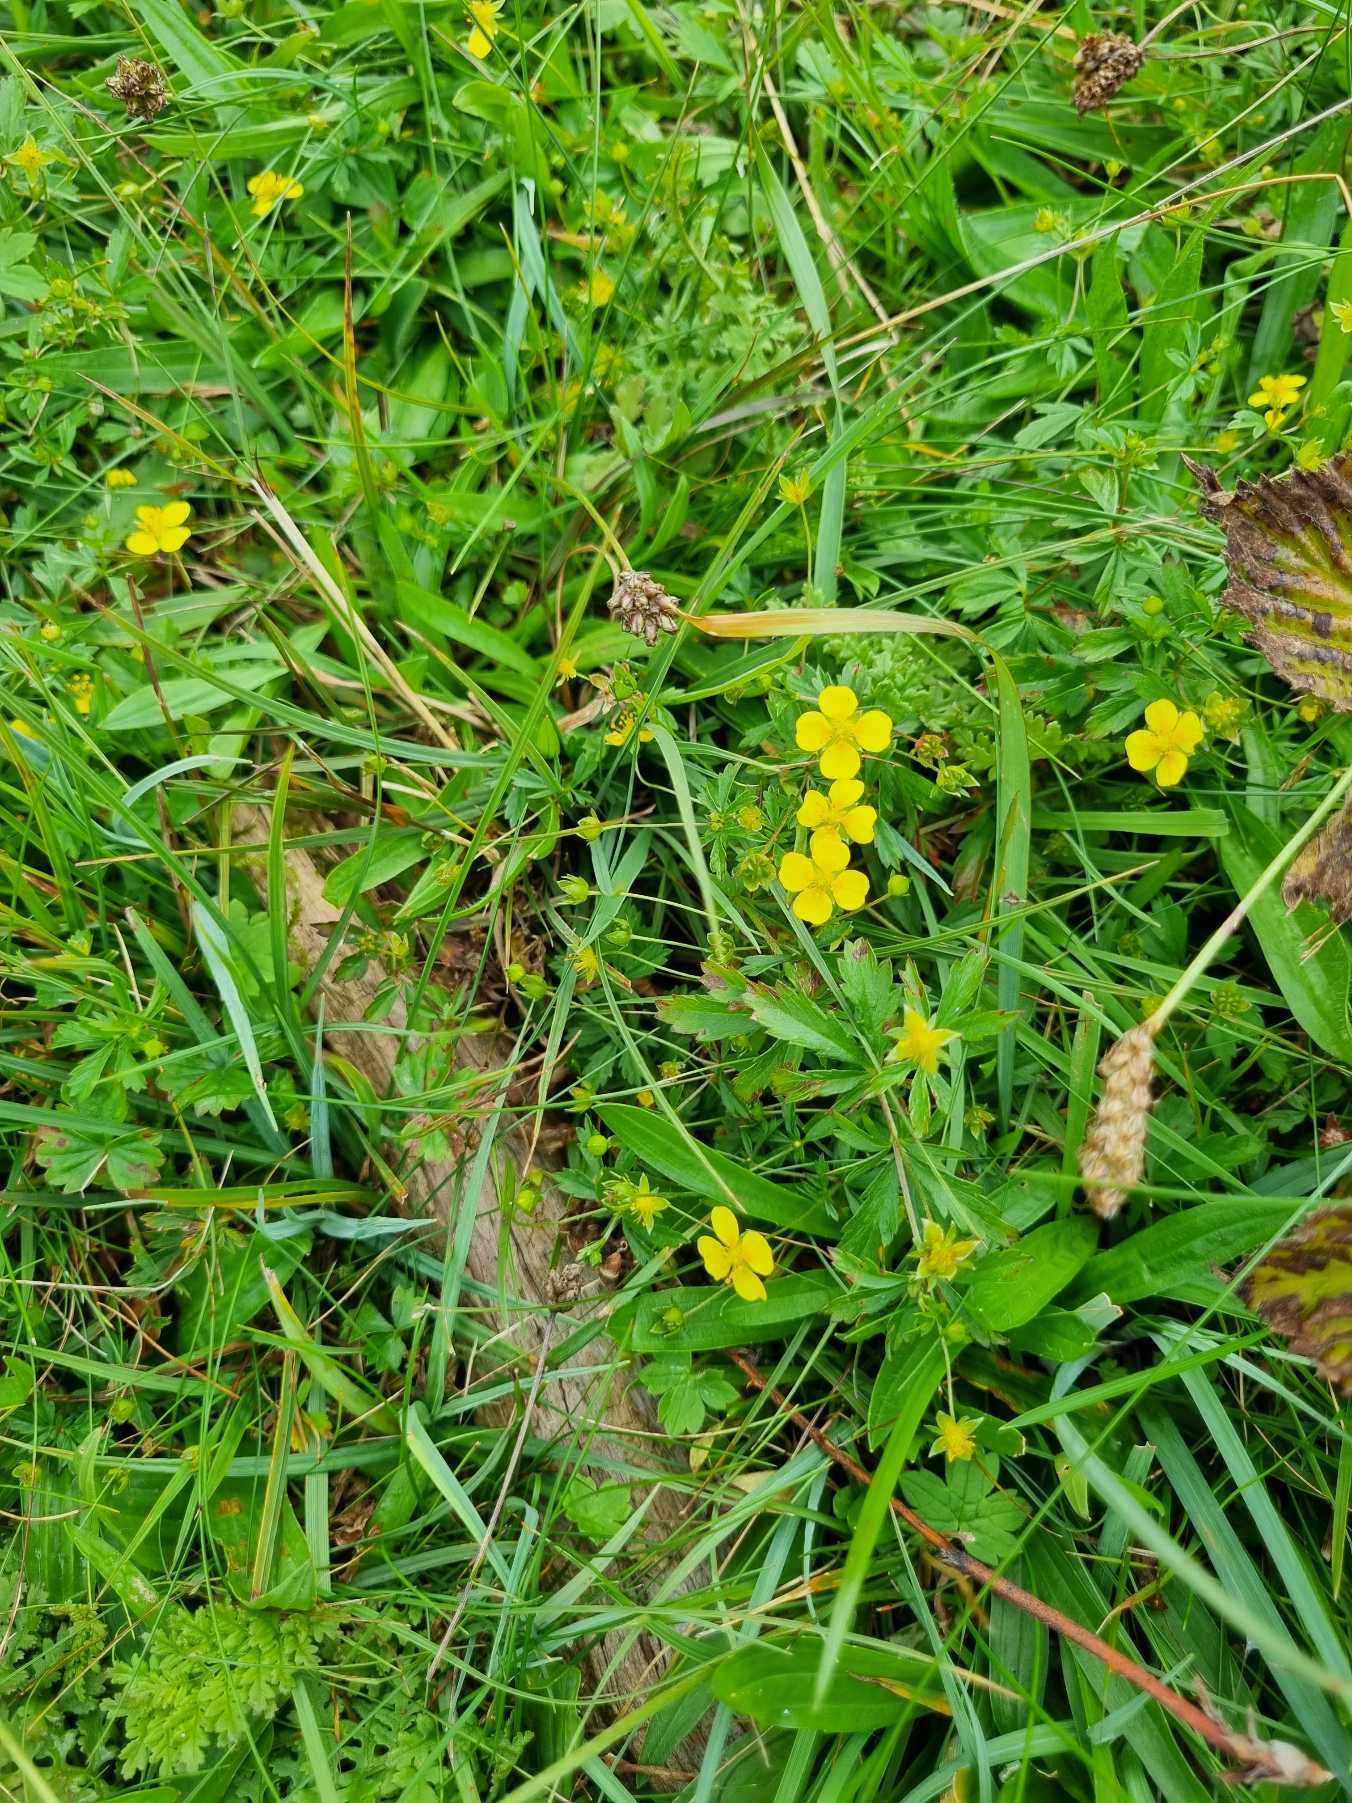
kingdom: Plantae
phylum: Tracheophyta
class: Magnoliopsida
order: Rosales
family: Rosaceae
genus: Potentilla
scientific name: Potentilla erecta
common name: Tormentil
